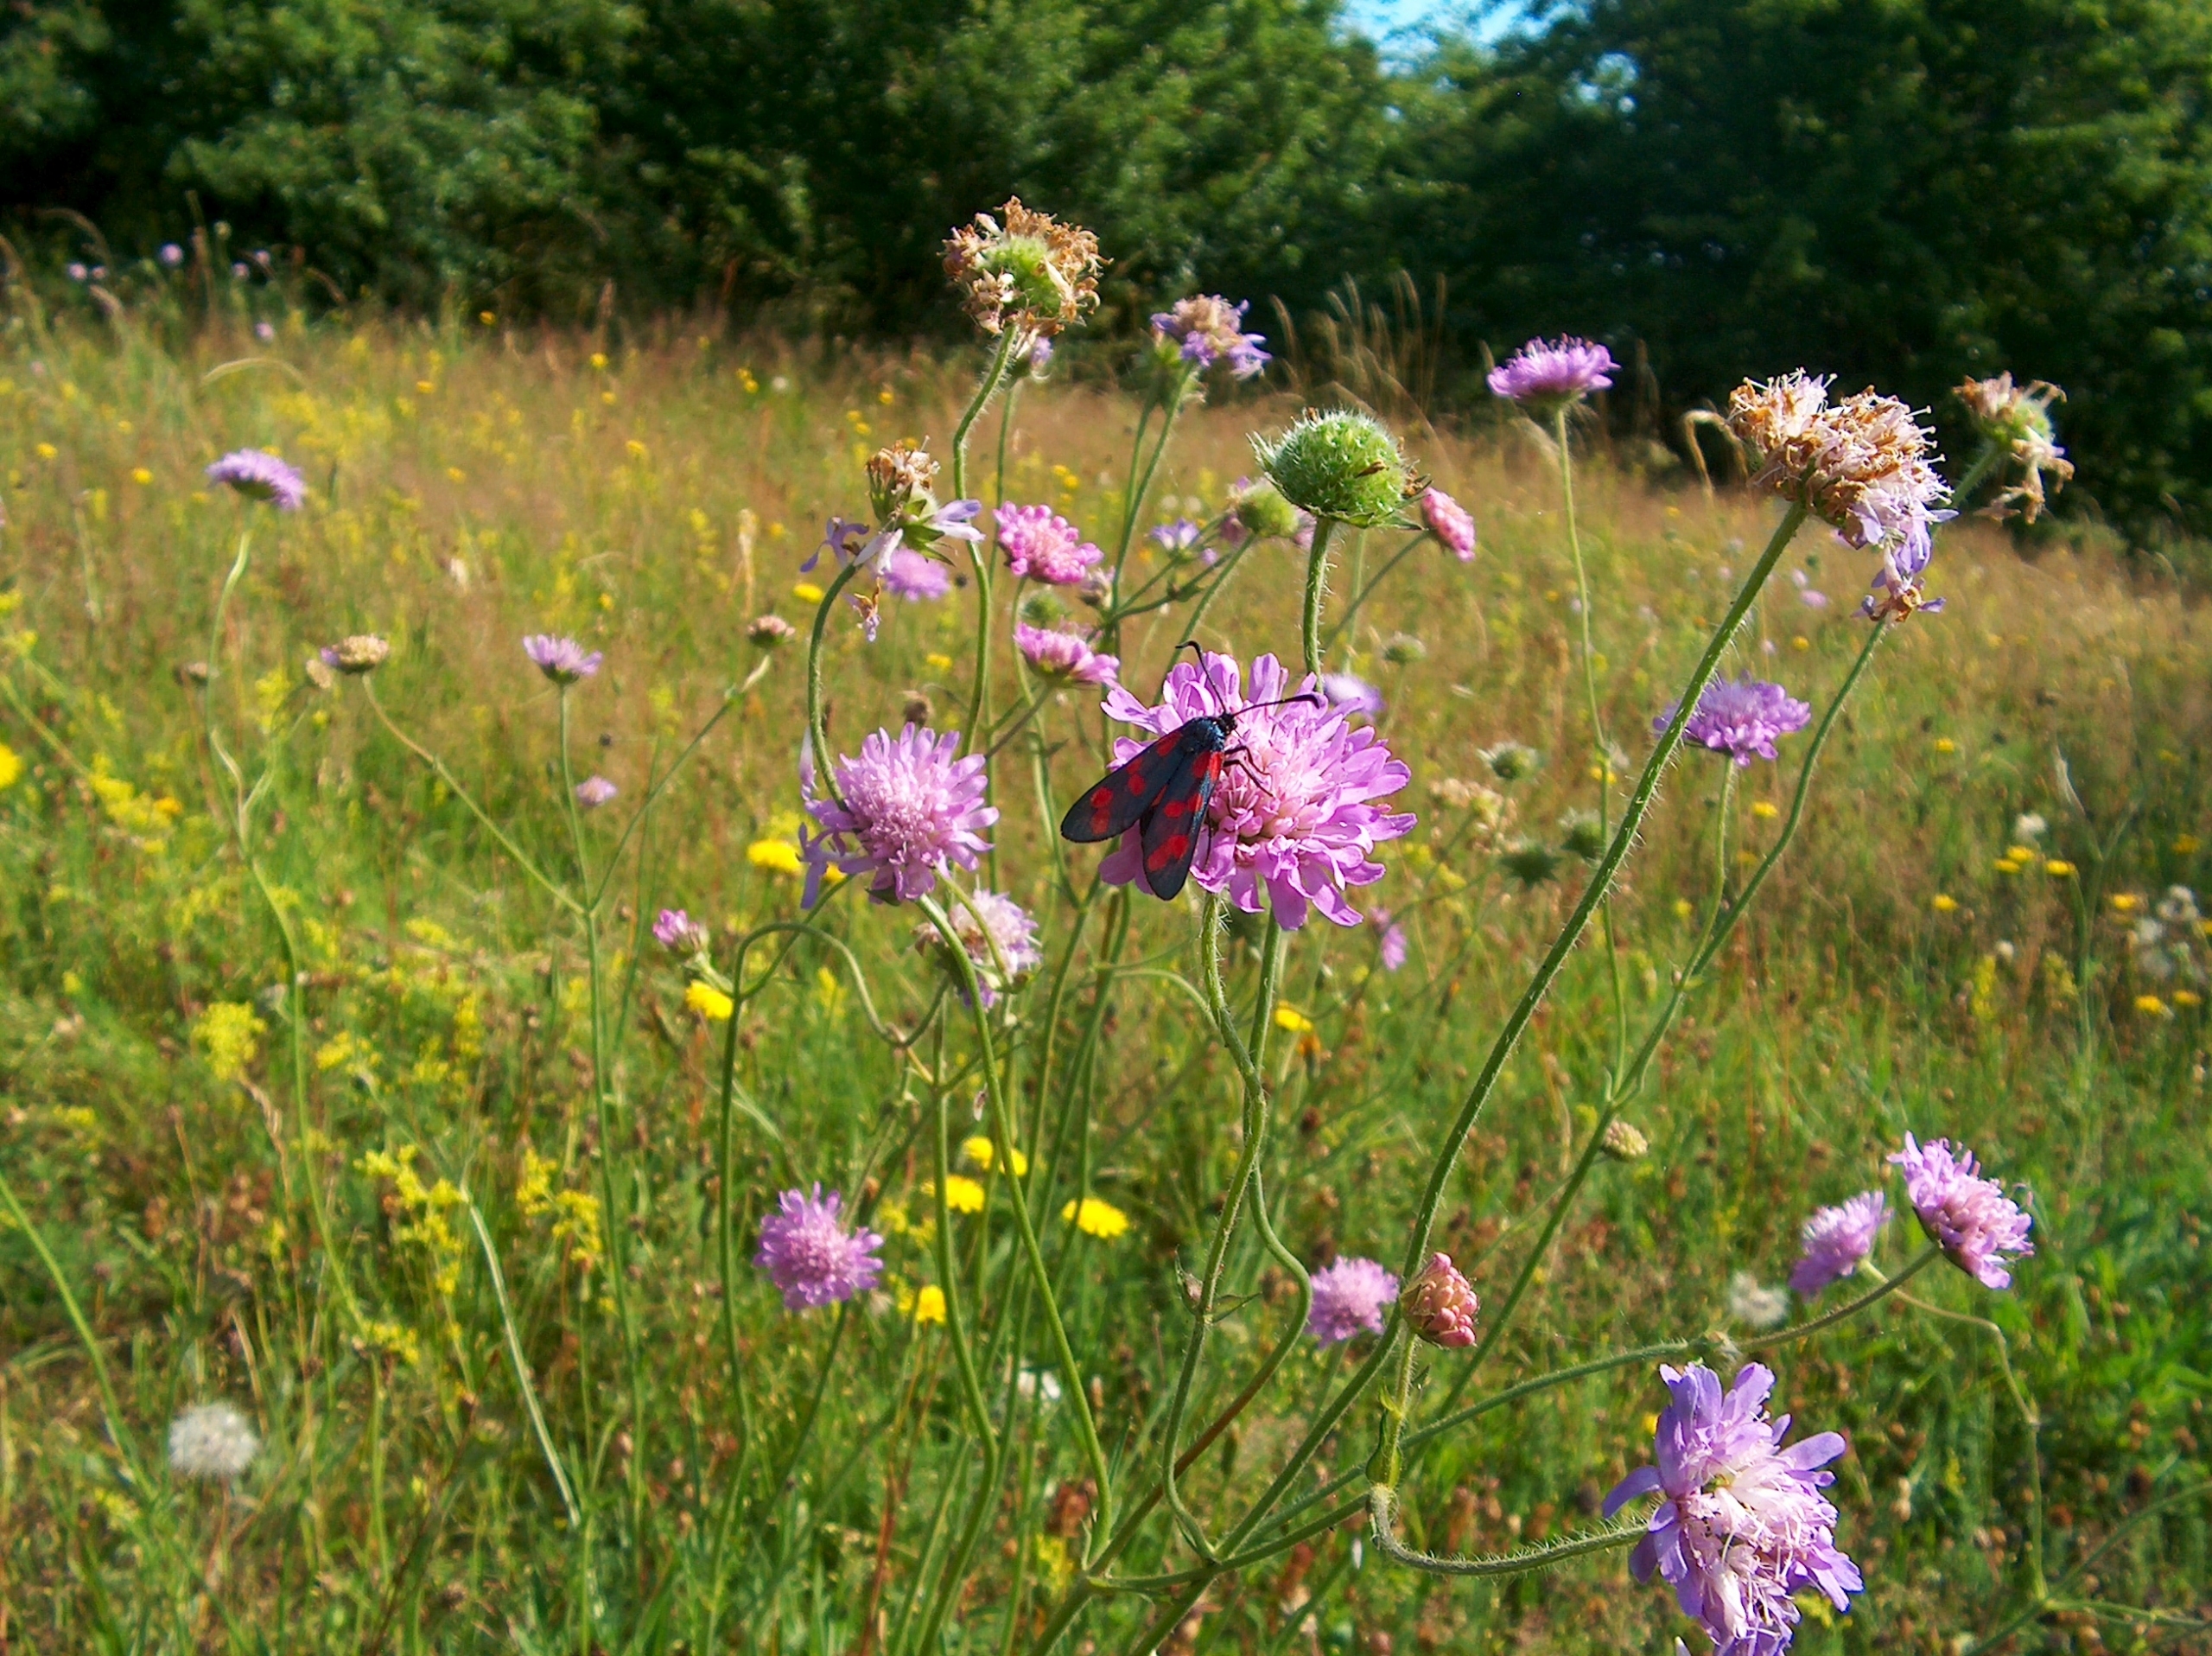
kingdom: Animalia
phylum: Arthropoda
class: Insecta
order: Lepidoptera
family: Zygaenidae
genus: Zygaena
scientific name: Zygaena filipendulae
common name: Seksplettet køllesværmer
